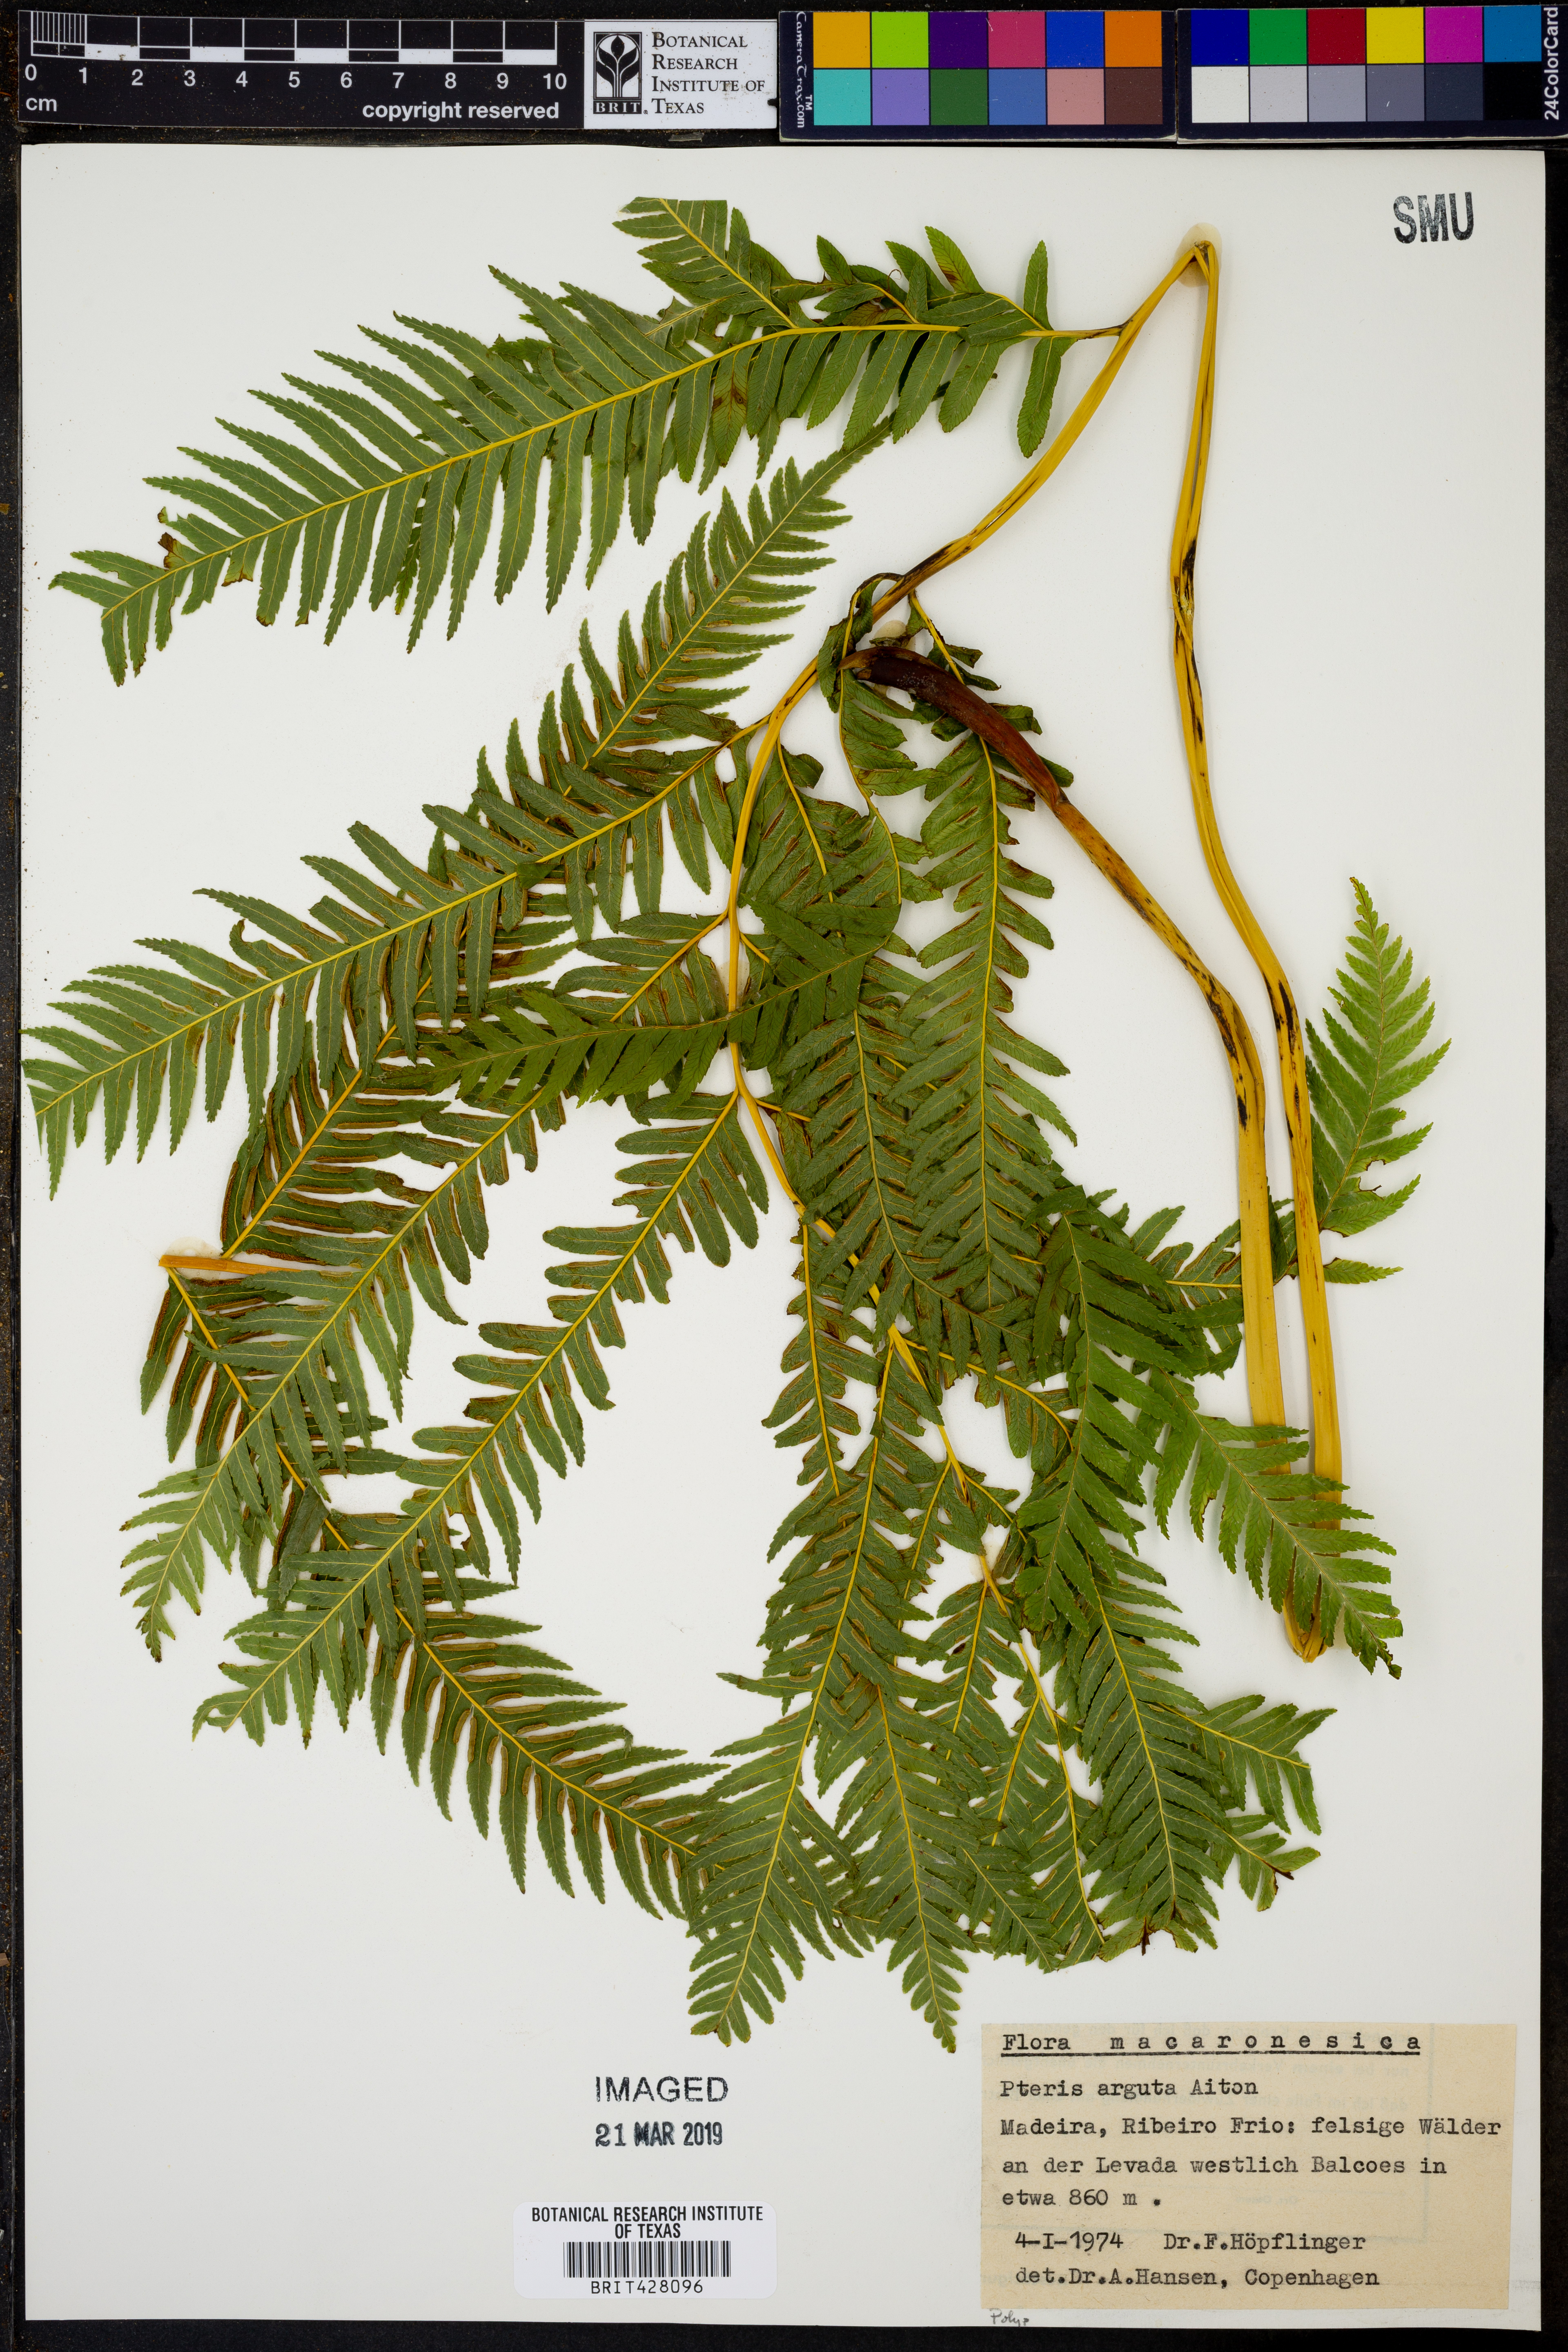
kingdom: Plantae
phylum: Tracheophyta
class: Polypodiopsida
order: Polypodiales
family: Pteridaceae
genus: Pteris
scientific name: Pteris dentata
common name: Toothed brake
